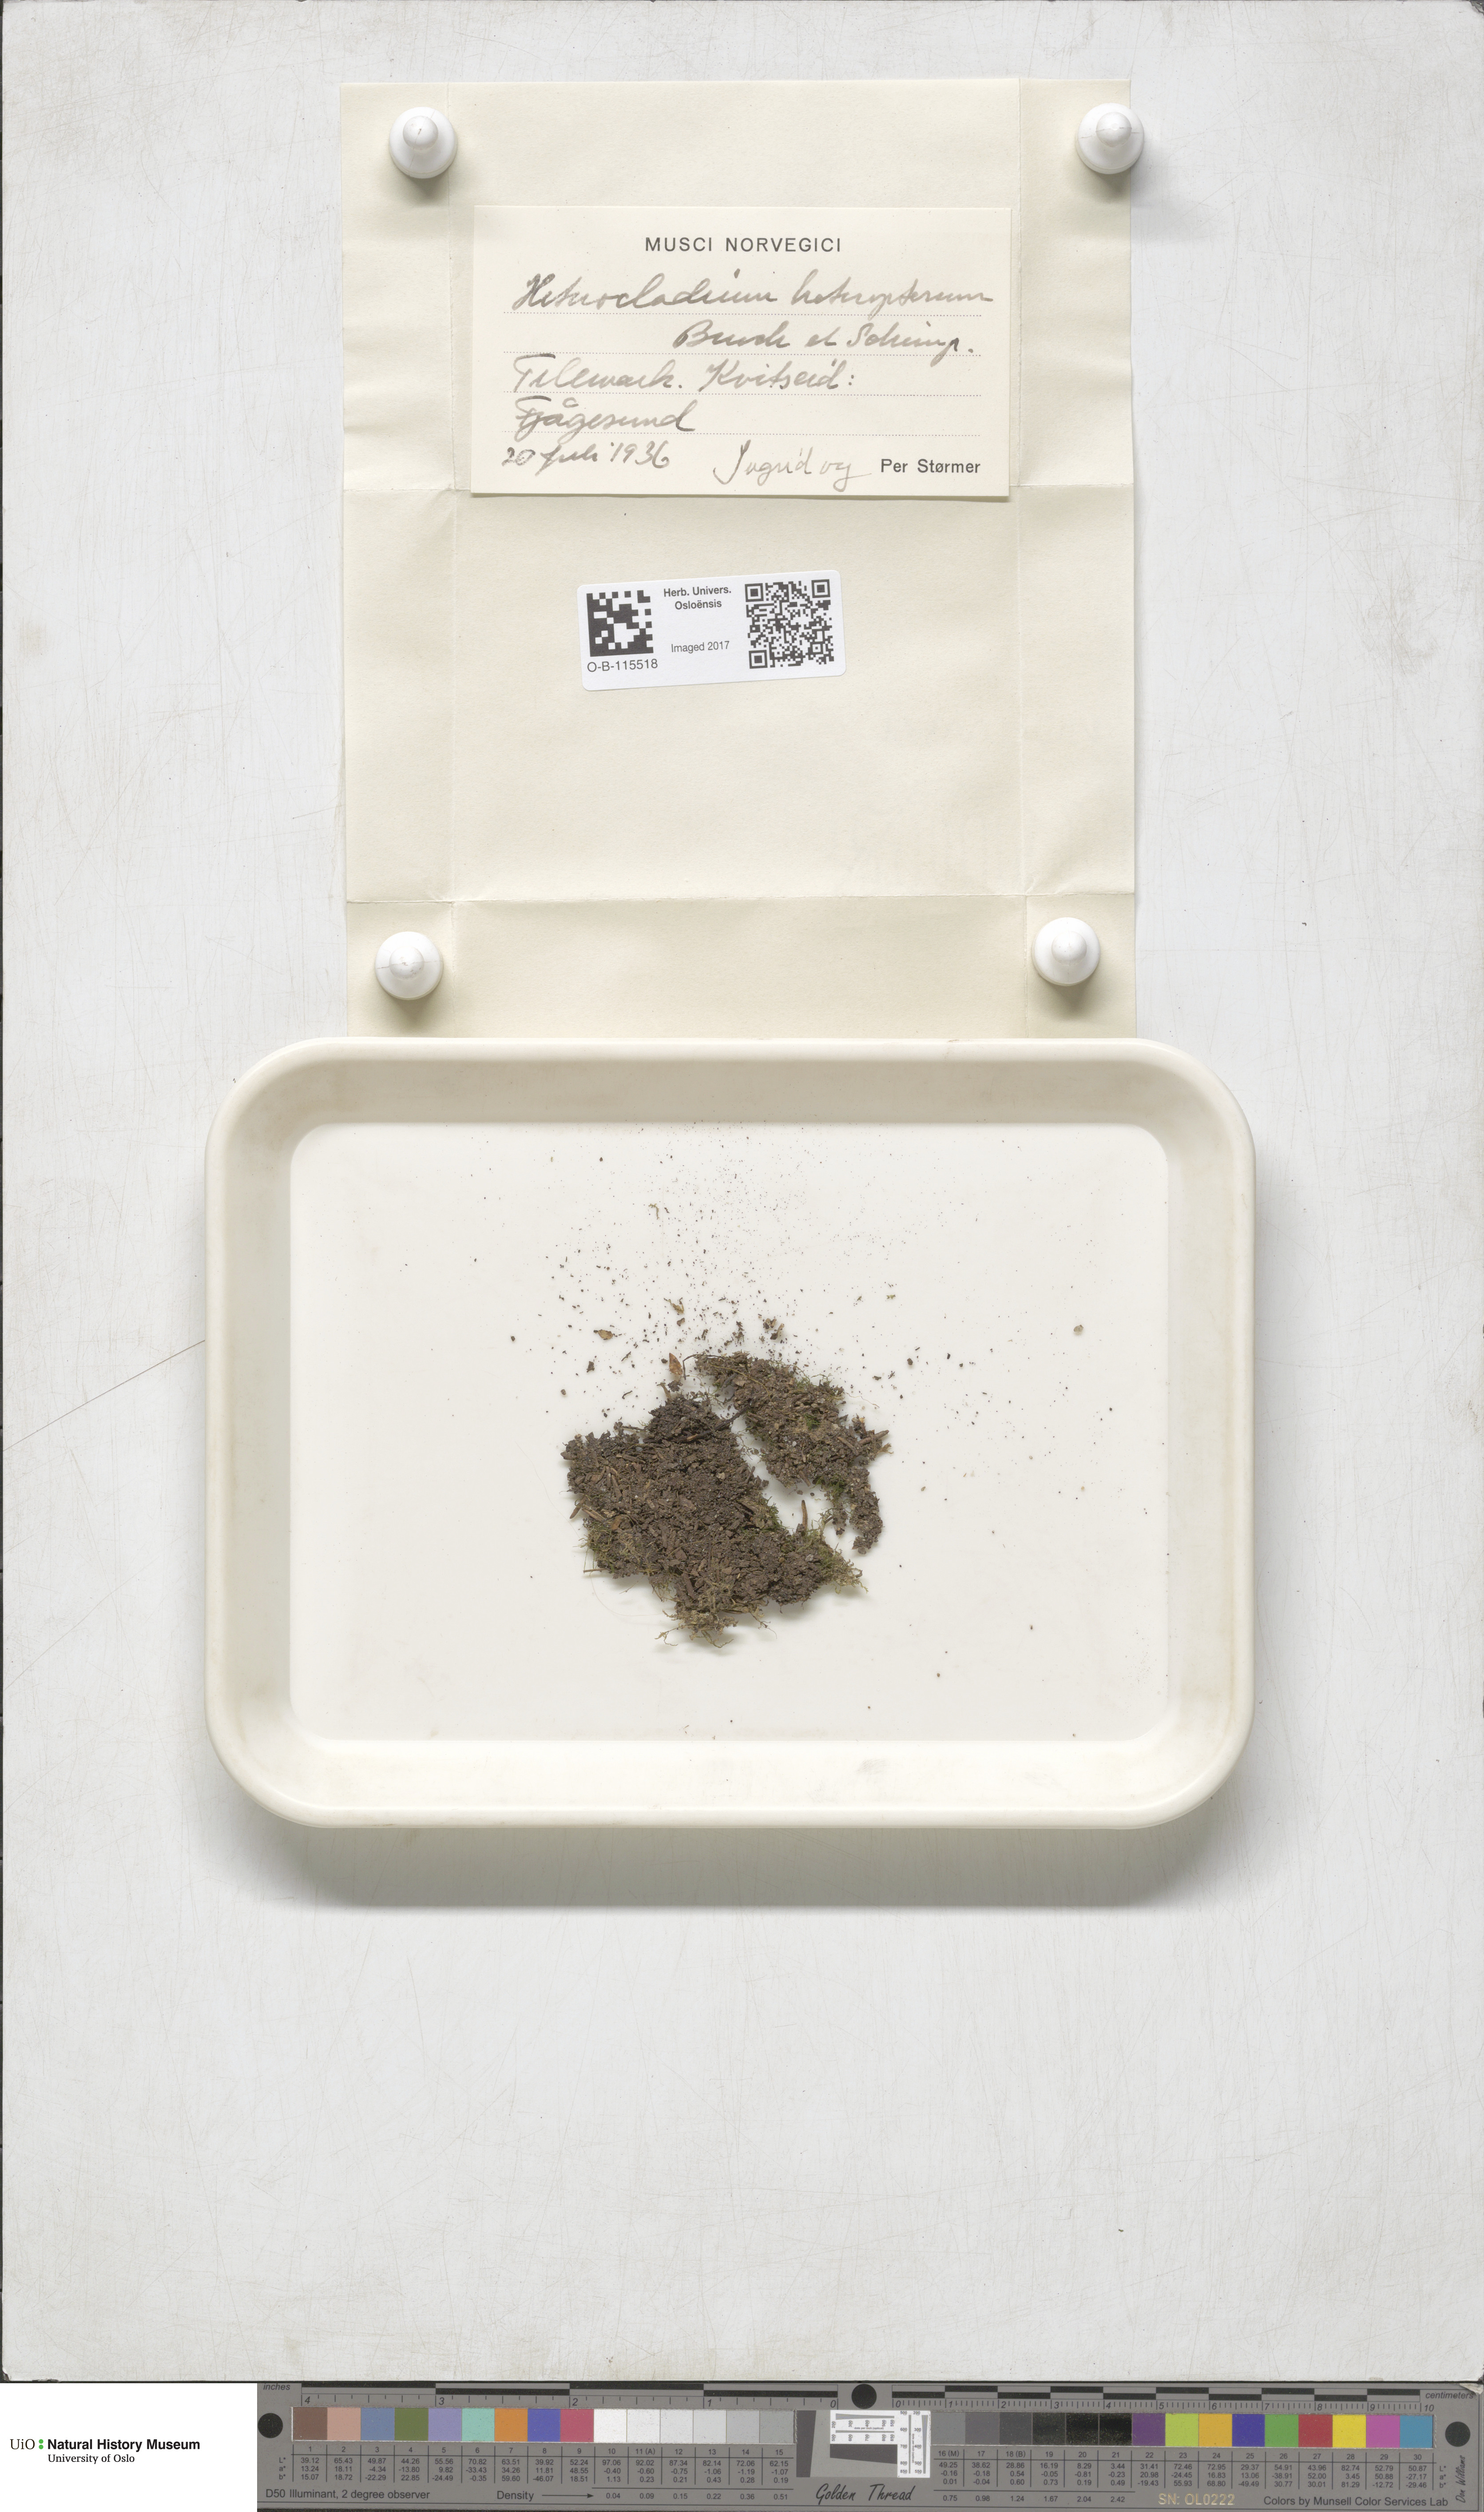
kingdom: Plantae
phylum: Bryophyta
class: Bryopsida
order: Hypnales
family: Lembophyllaceae
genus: Heterocladium
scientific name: Heterocladium heteropterum
